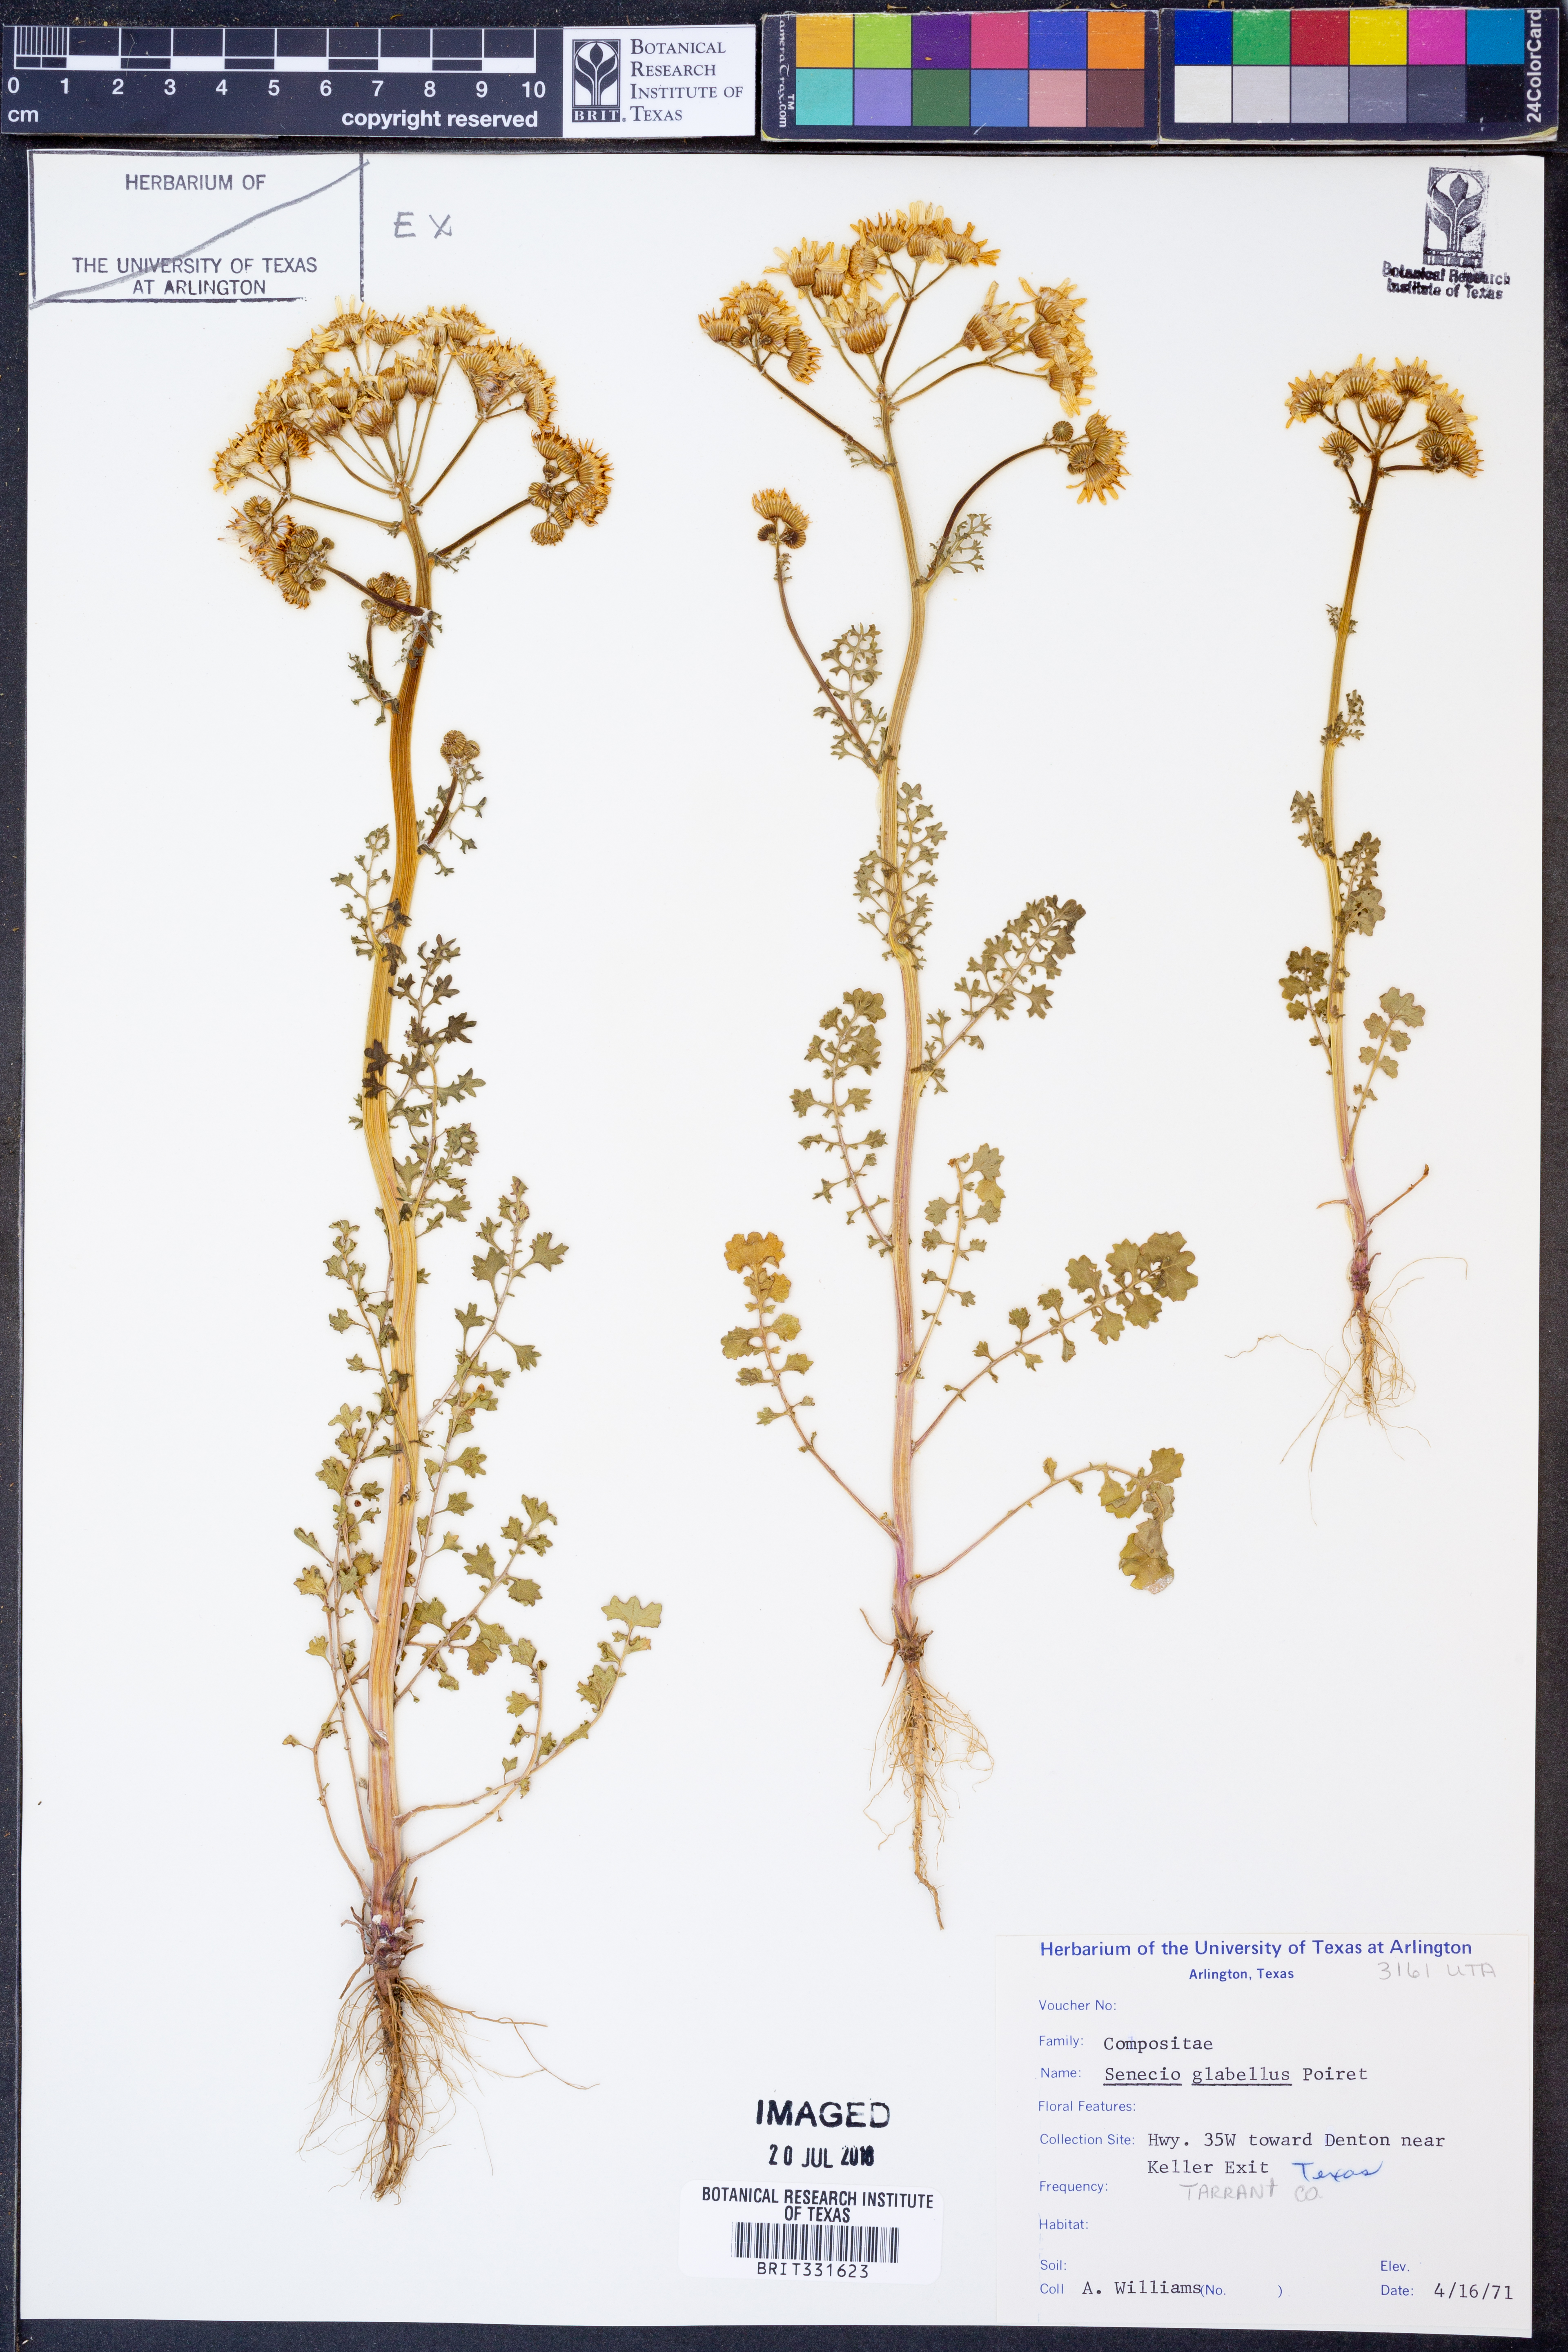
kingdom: Plantae
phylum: Tracheophyta
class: Magnoliopsida
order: Asterales
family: Asteraceae
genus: Tephroseris
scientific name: Tephroseris praticola
